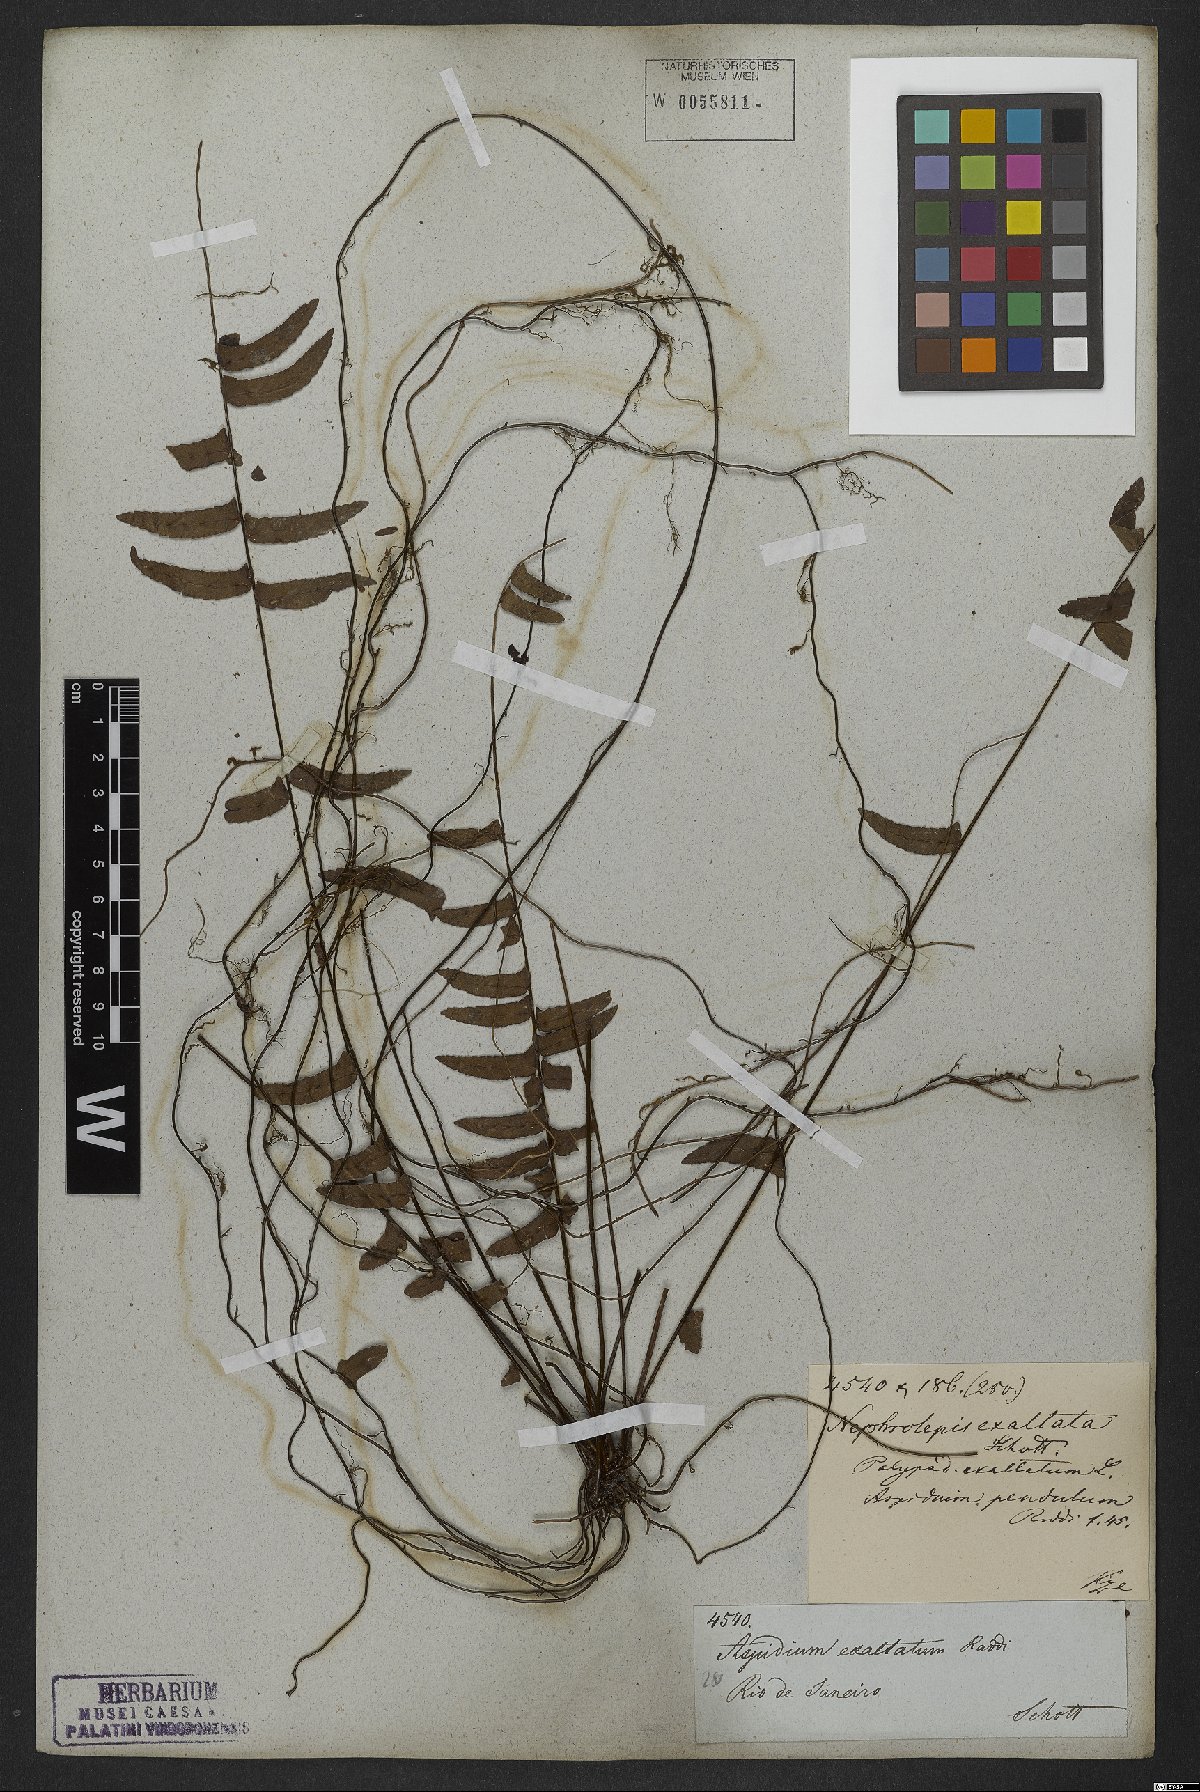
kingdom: Plantae
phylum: Tracheophyta
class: Polypodiopsida
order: Polypodiales
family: Nephrolepidaceae
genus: Nephrolepis
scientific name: Nephrolepis exaltata
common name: Sword fern
